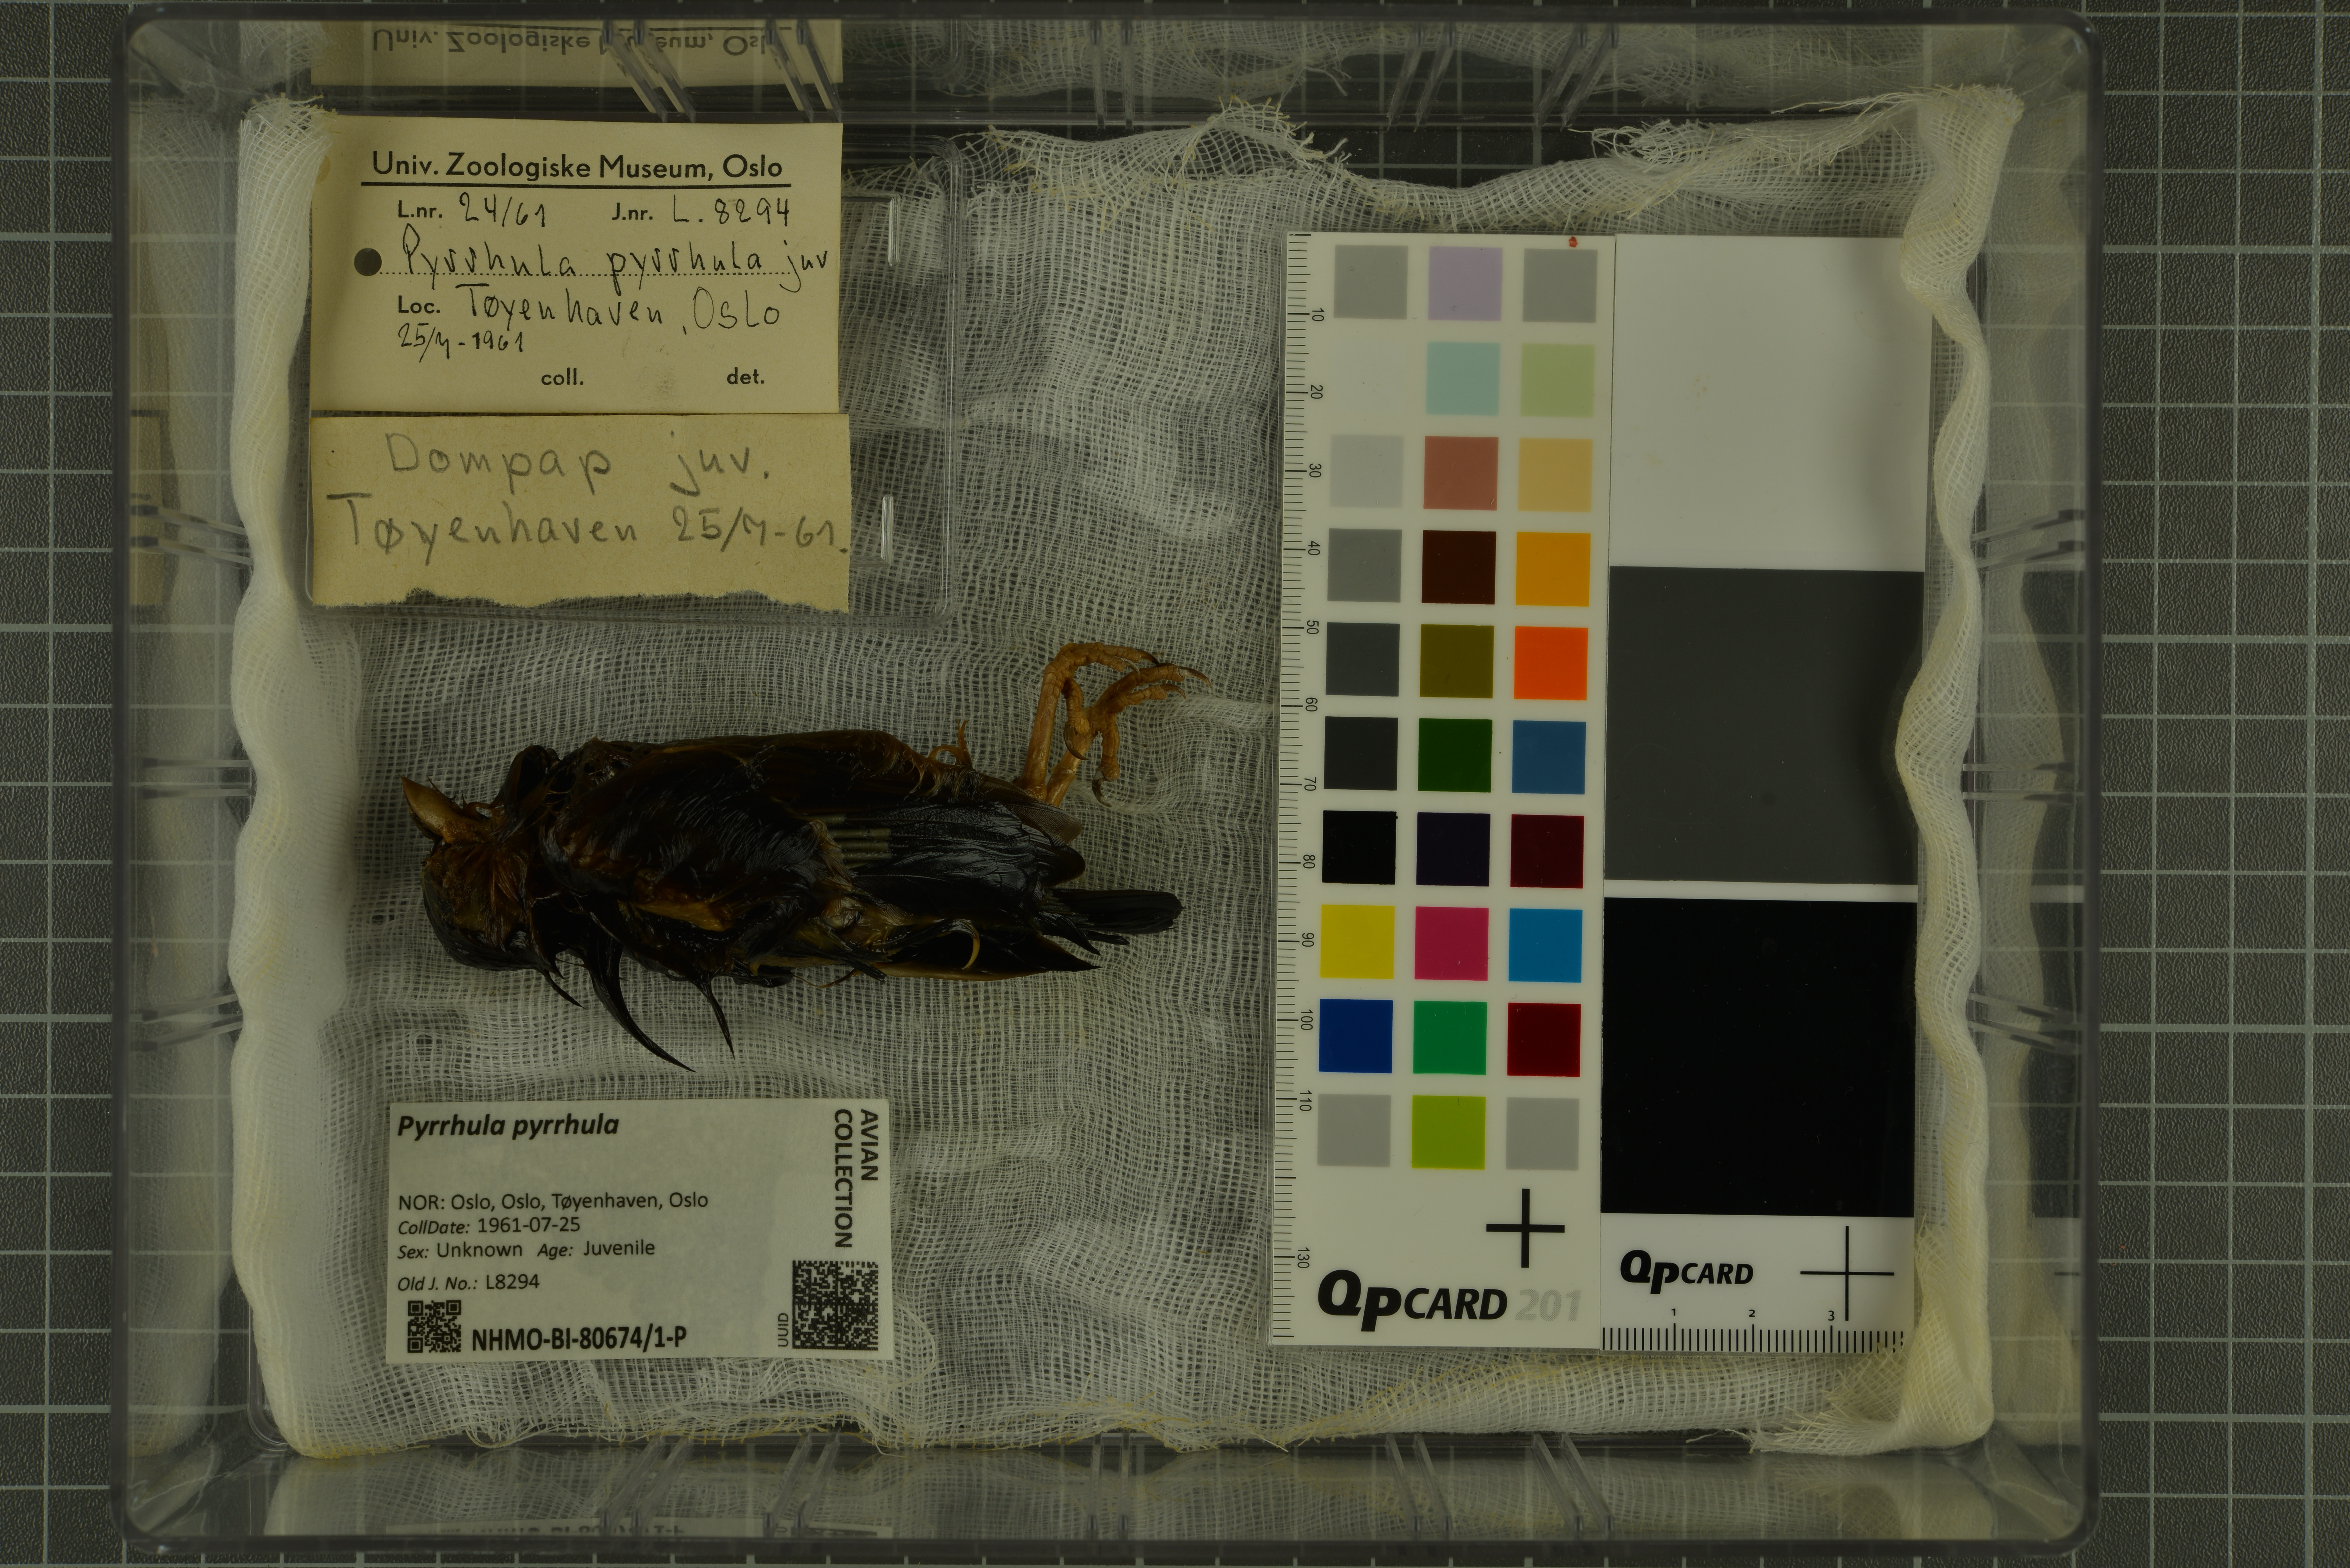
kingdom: Animalia
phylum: Chordata
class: Aves
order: Passeriformes
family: Fringillidae
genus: Pyrrhula
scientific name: Pyrrhula pyrrhula
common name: Eurasian bullfinch
